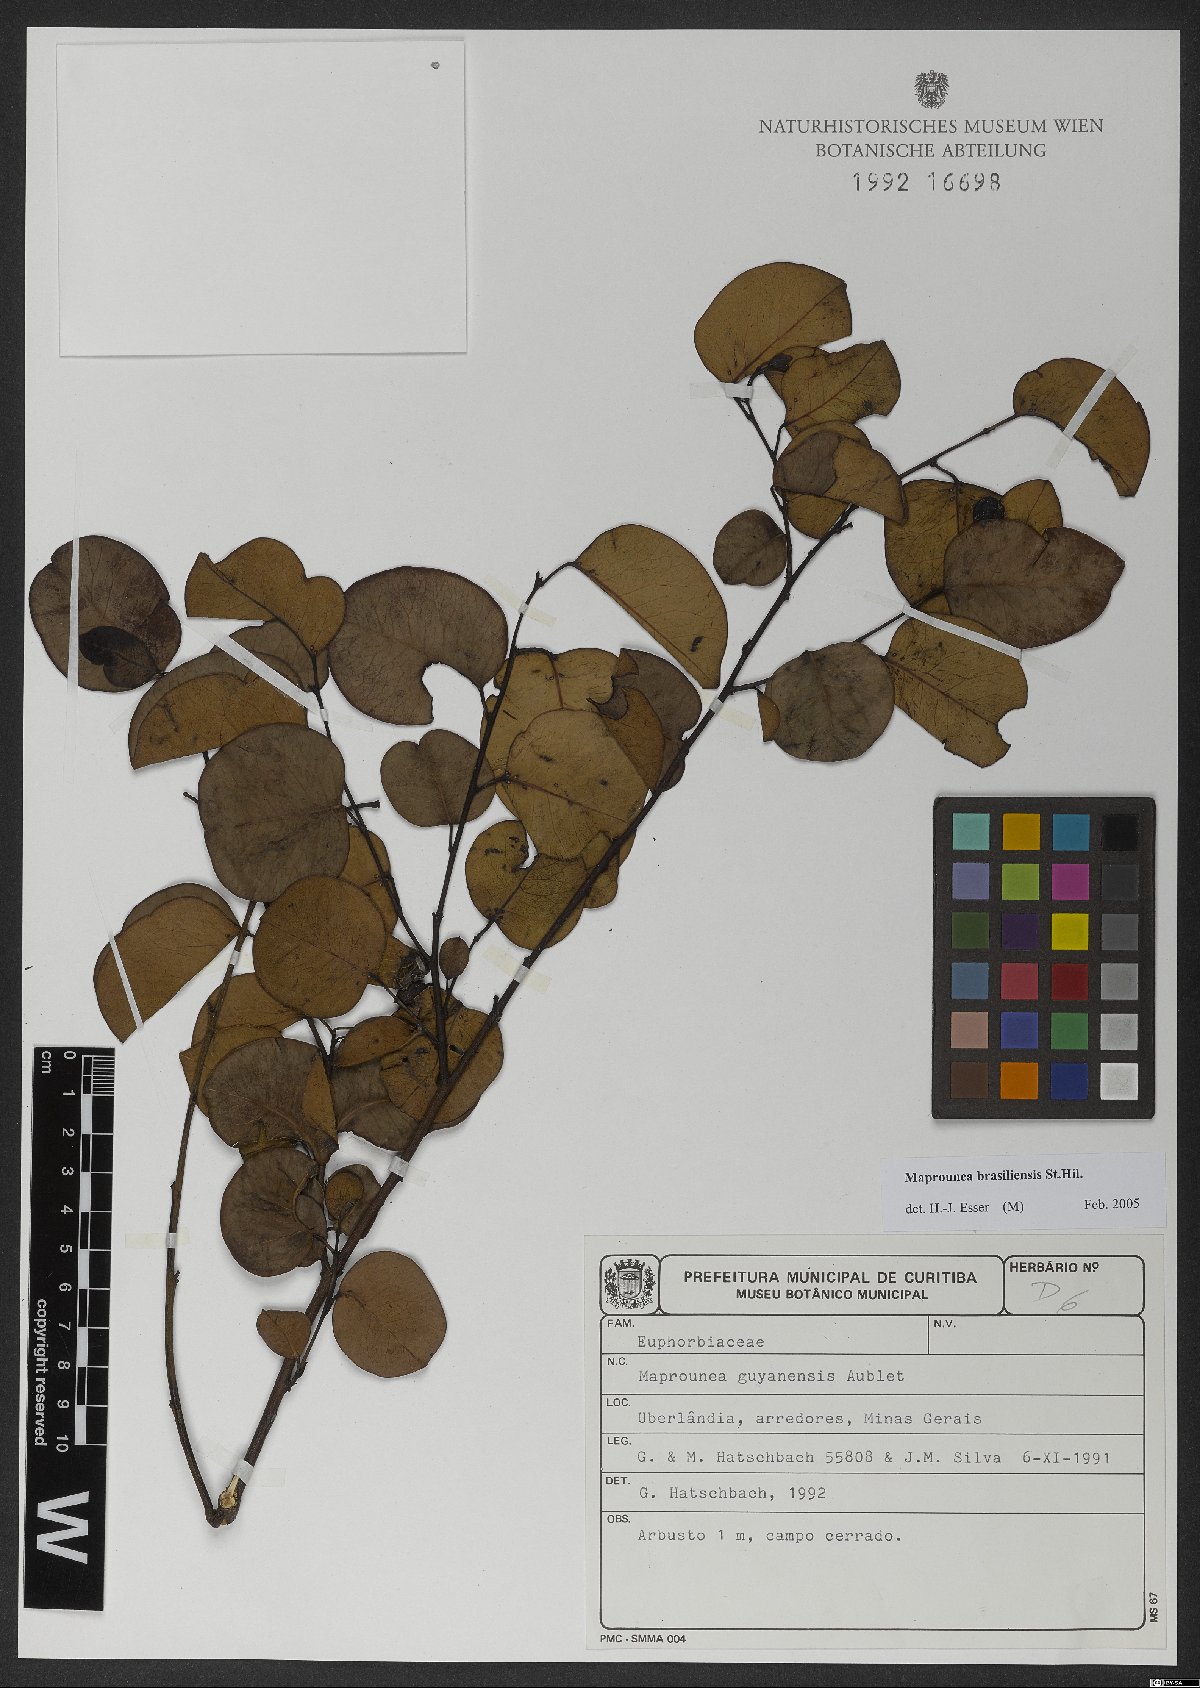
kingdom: Plantae
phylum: Tracheophyta
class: Magnoliopsida
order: Malpighiales
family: Euphorbiaceae
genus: Maprounea
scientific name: Maprounea guianensis
